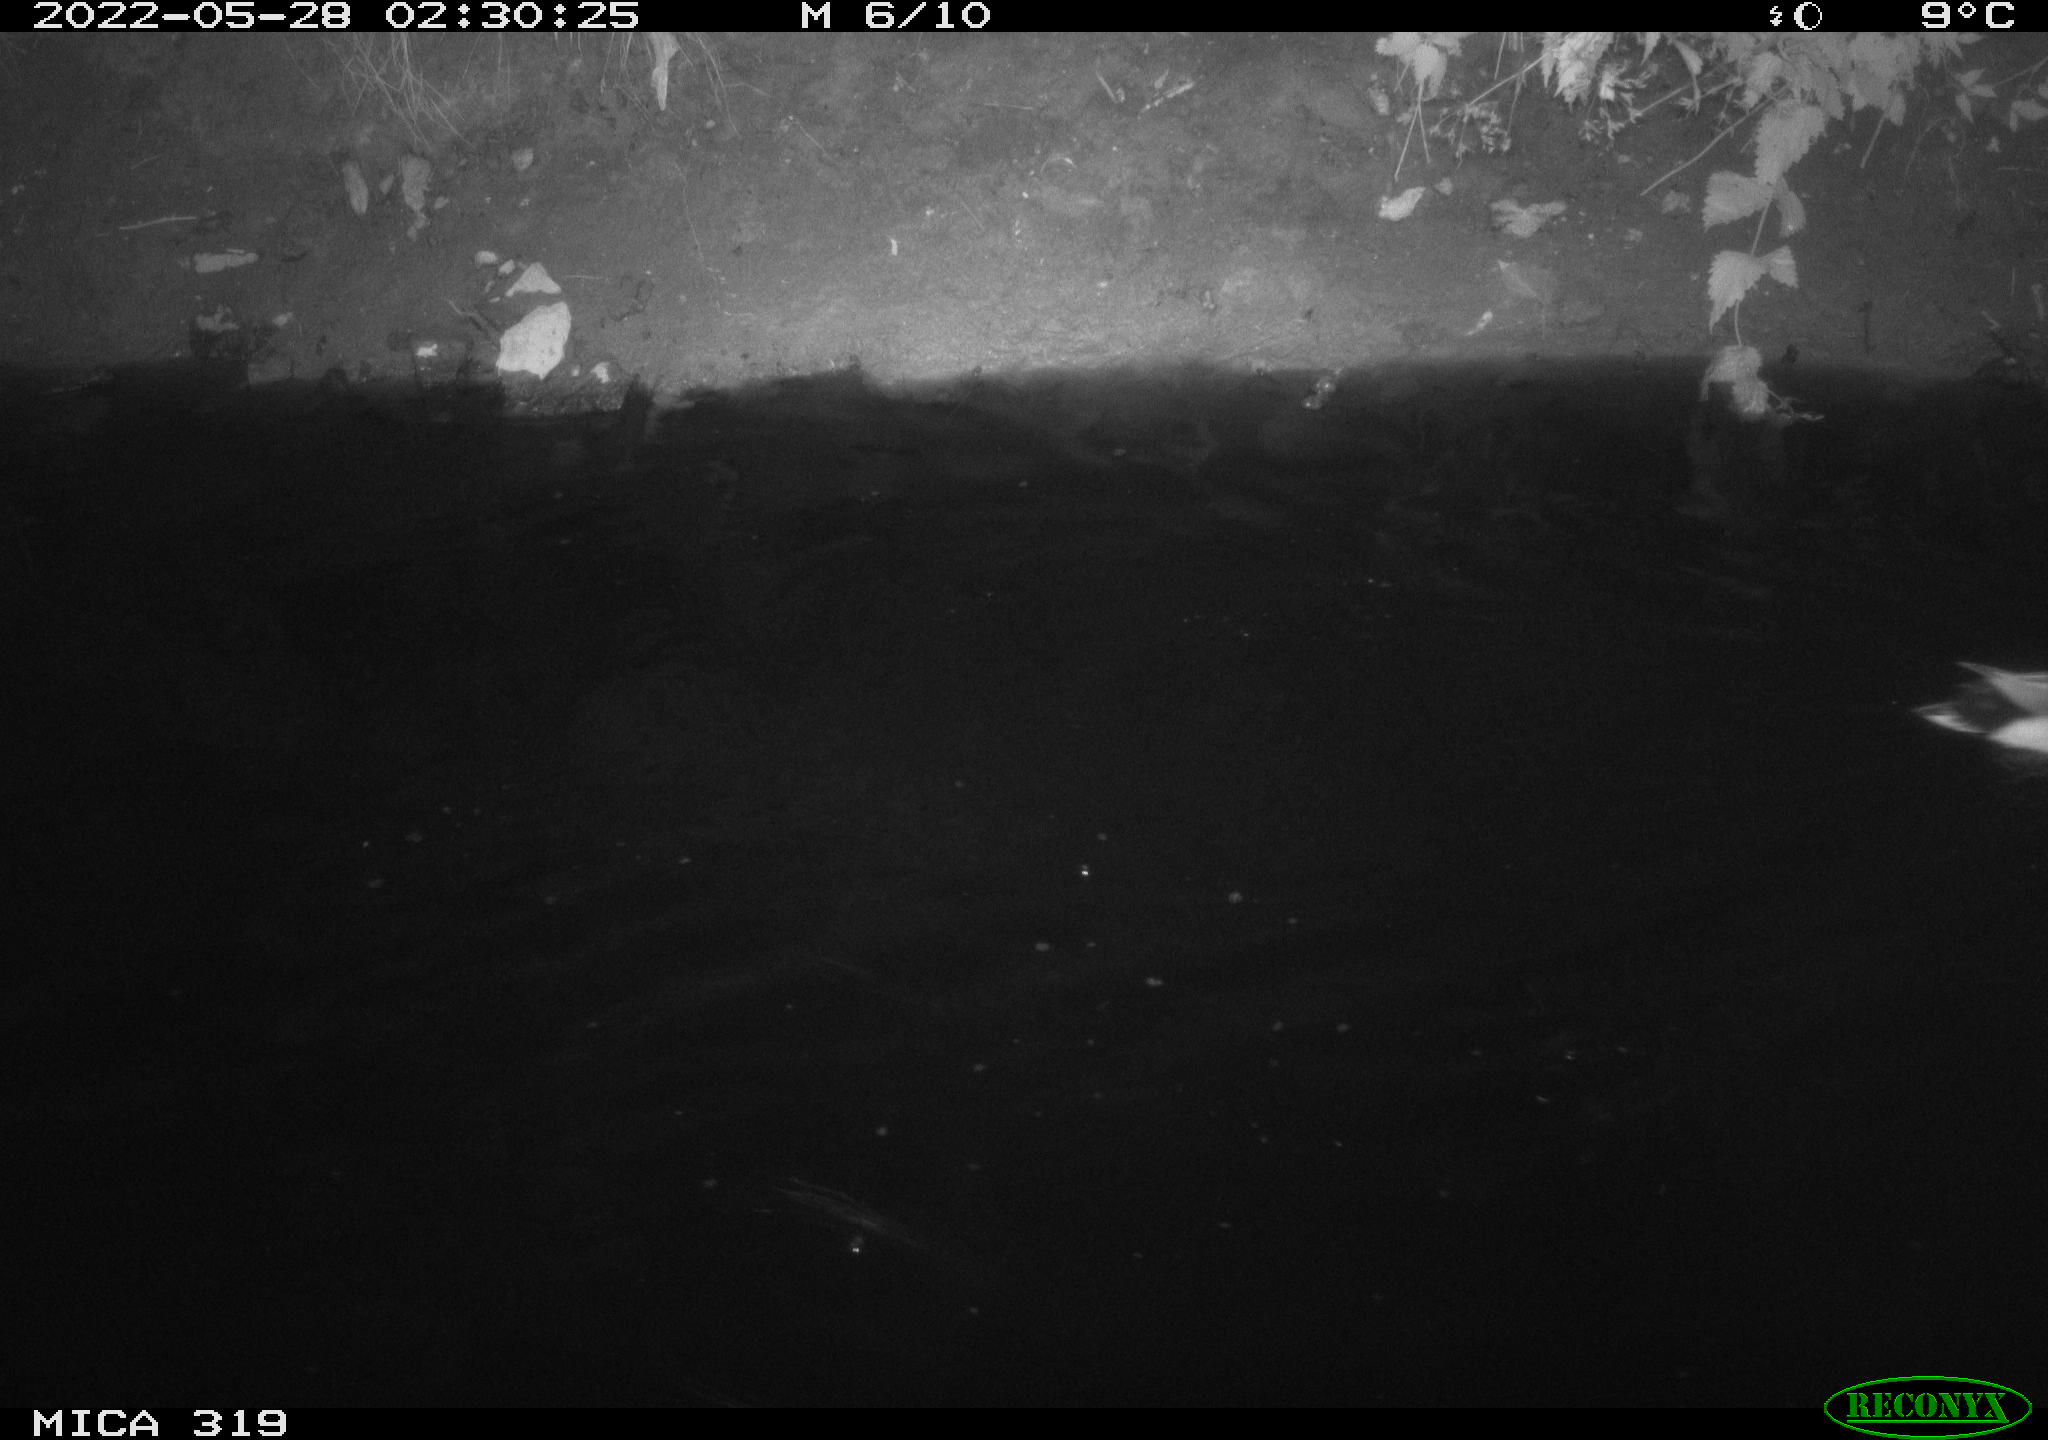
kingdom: Animalia
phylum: Chordata
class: Aves
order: Anseriformes
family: Anatidae
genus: Anas
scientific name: Anas
